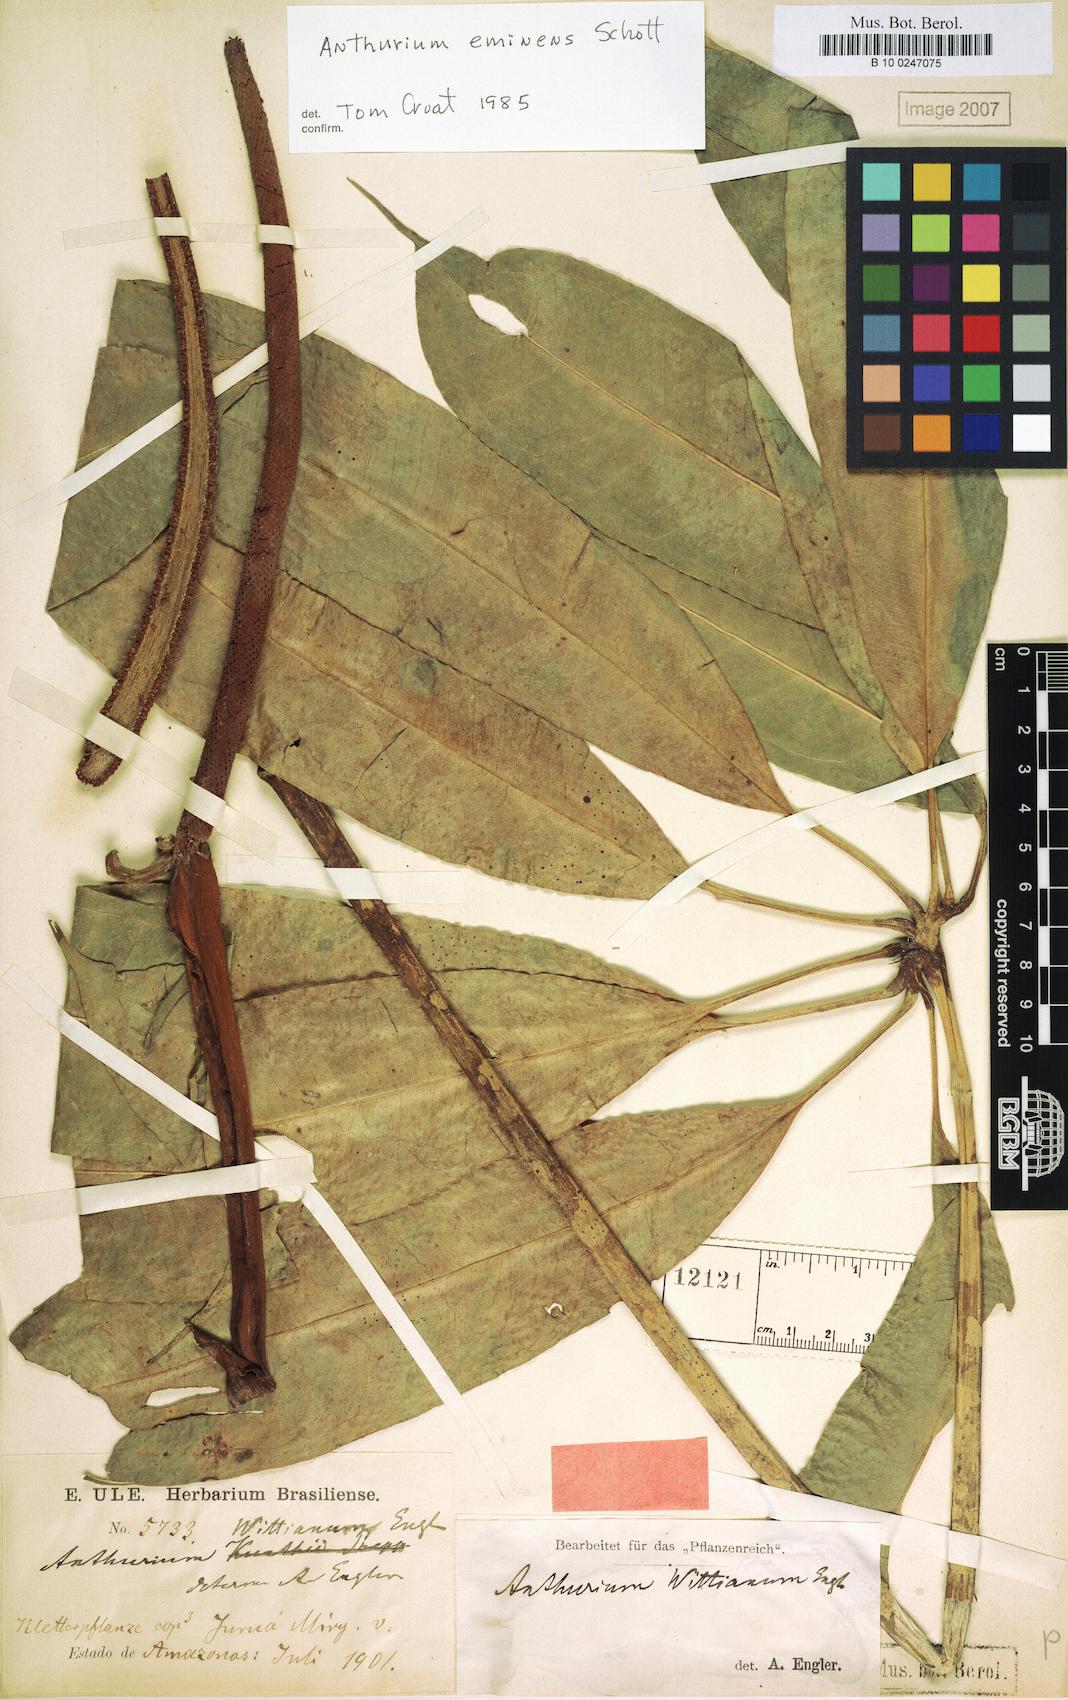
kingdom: Plantae
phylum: Tracheophyta
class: Liliopsida
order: Alismatales
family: Araceae
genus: Anthurium
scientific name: Anthurium eminens
